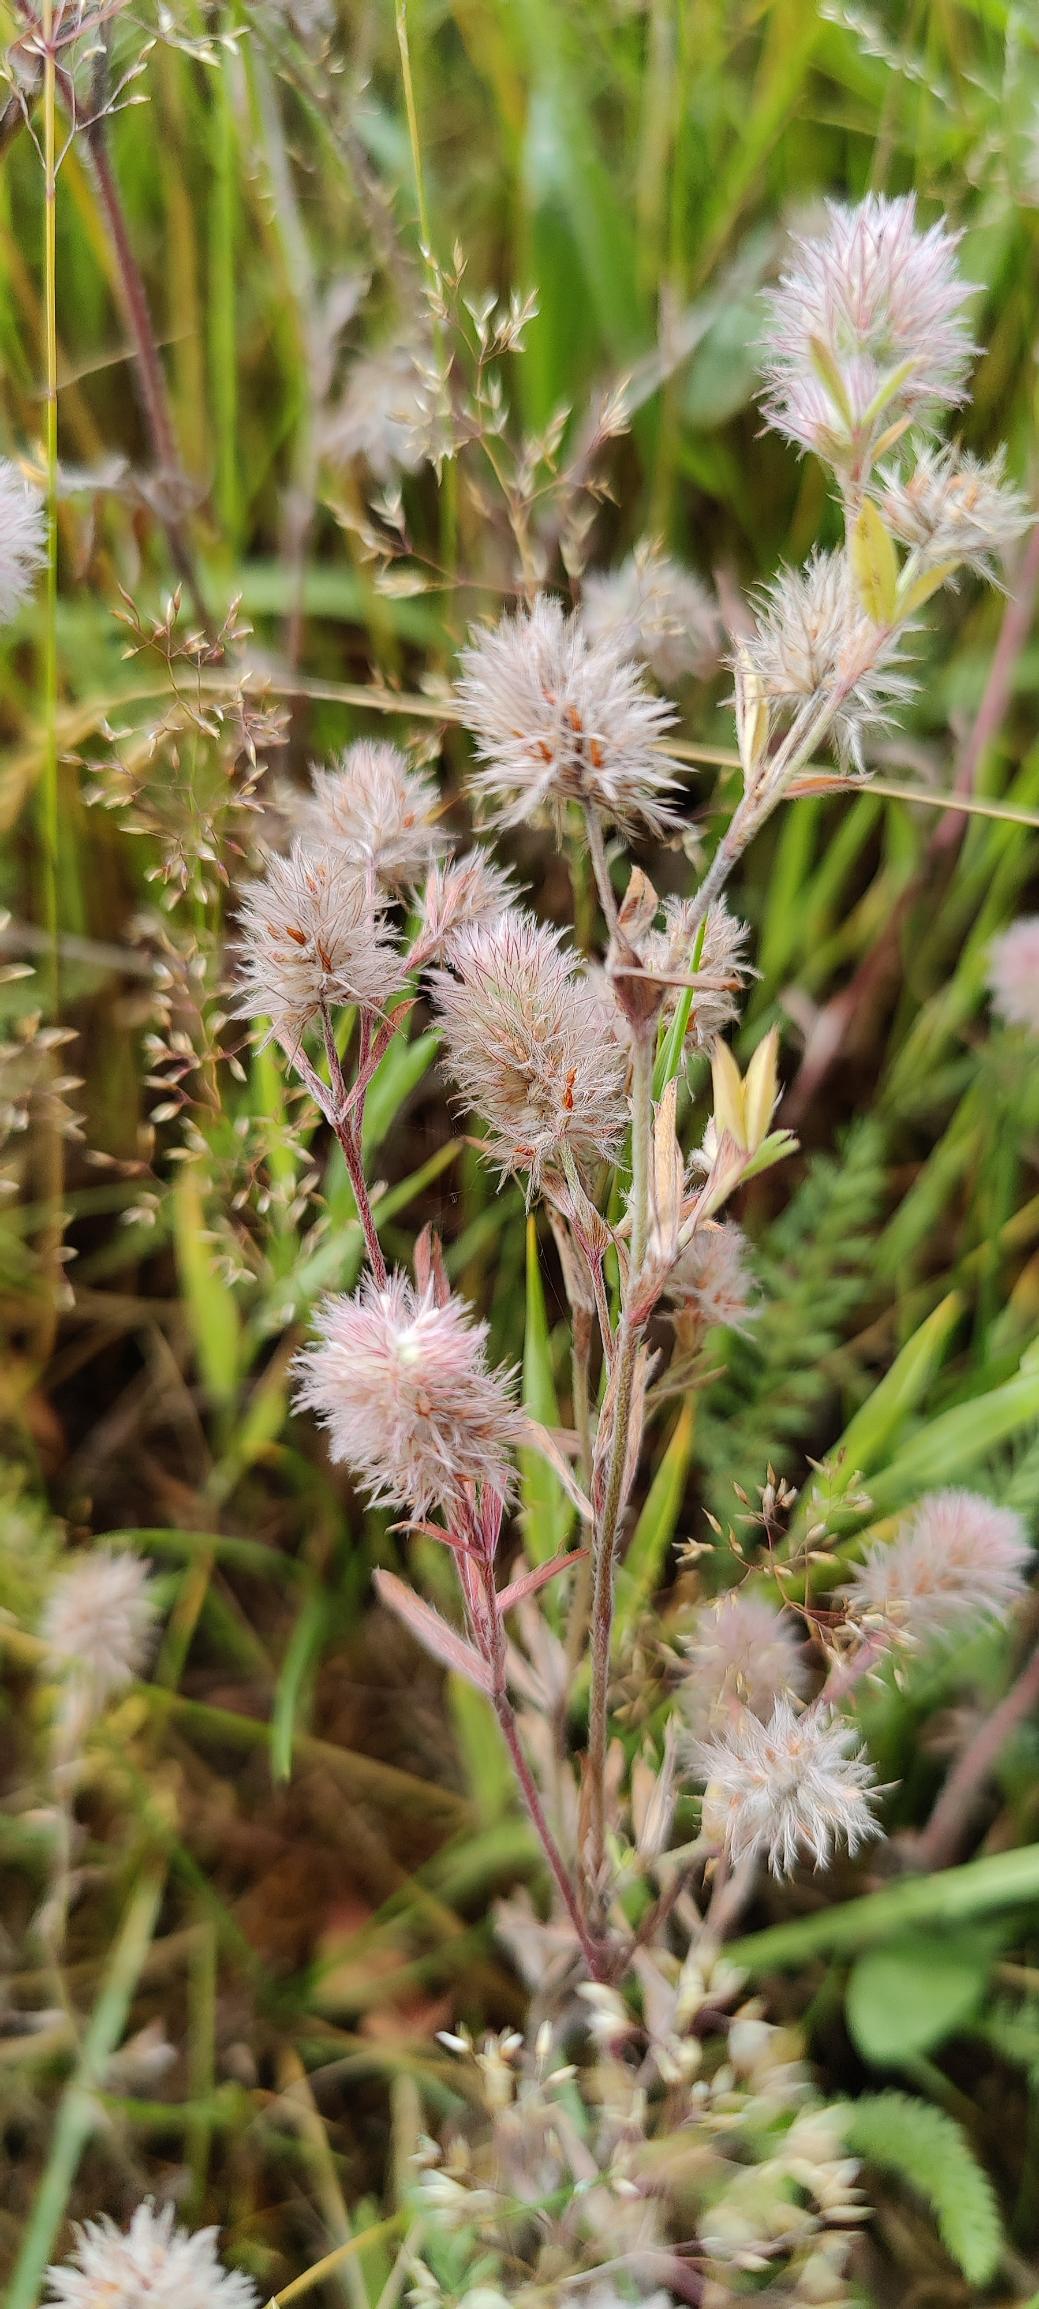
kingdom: Plantae
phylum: Tracheophyta
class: Magnoliopsida
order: Fabales
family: Fabaceae
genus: Trifolium
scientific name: Trifolium arvense
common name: Hare-kløver
